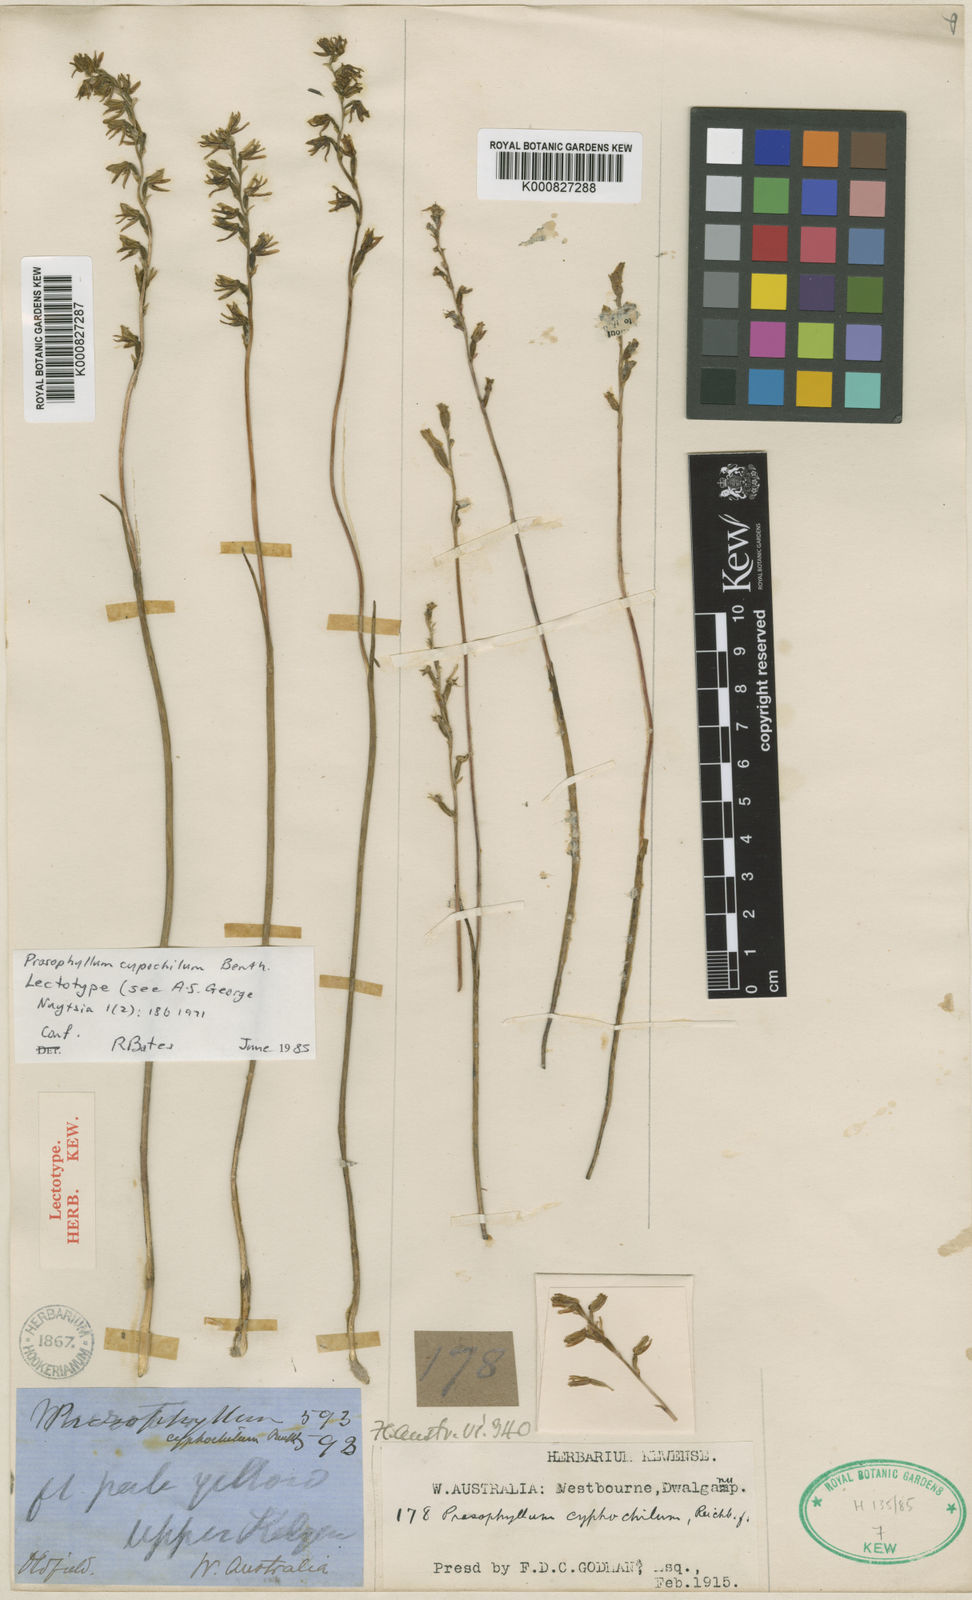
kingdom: Plantae
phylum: Tracheophyta
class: Liliopsida
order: Asparagales
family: Orchidaceae
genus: Prasophyllum
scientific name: Prasophyllum
